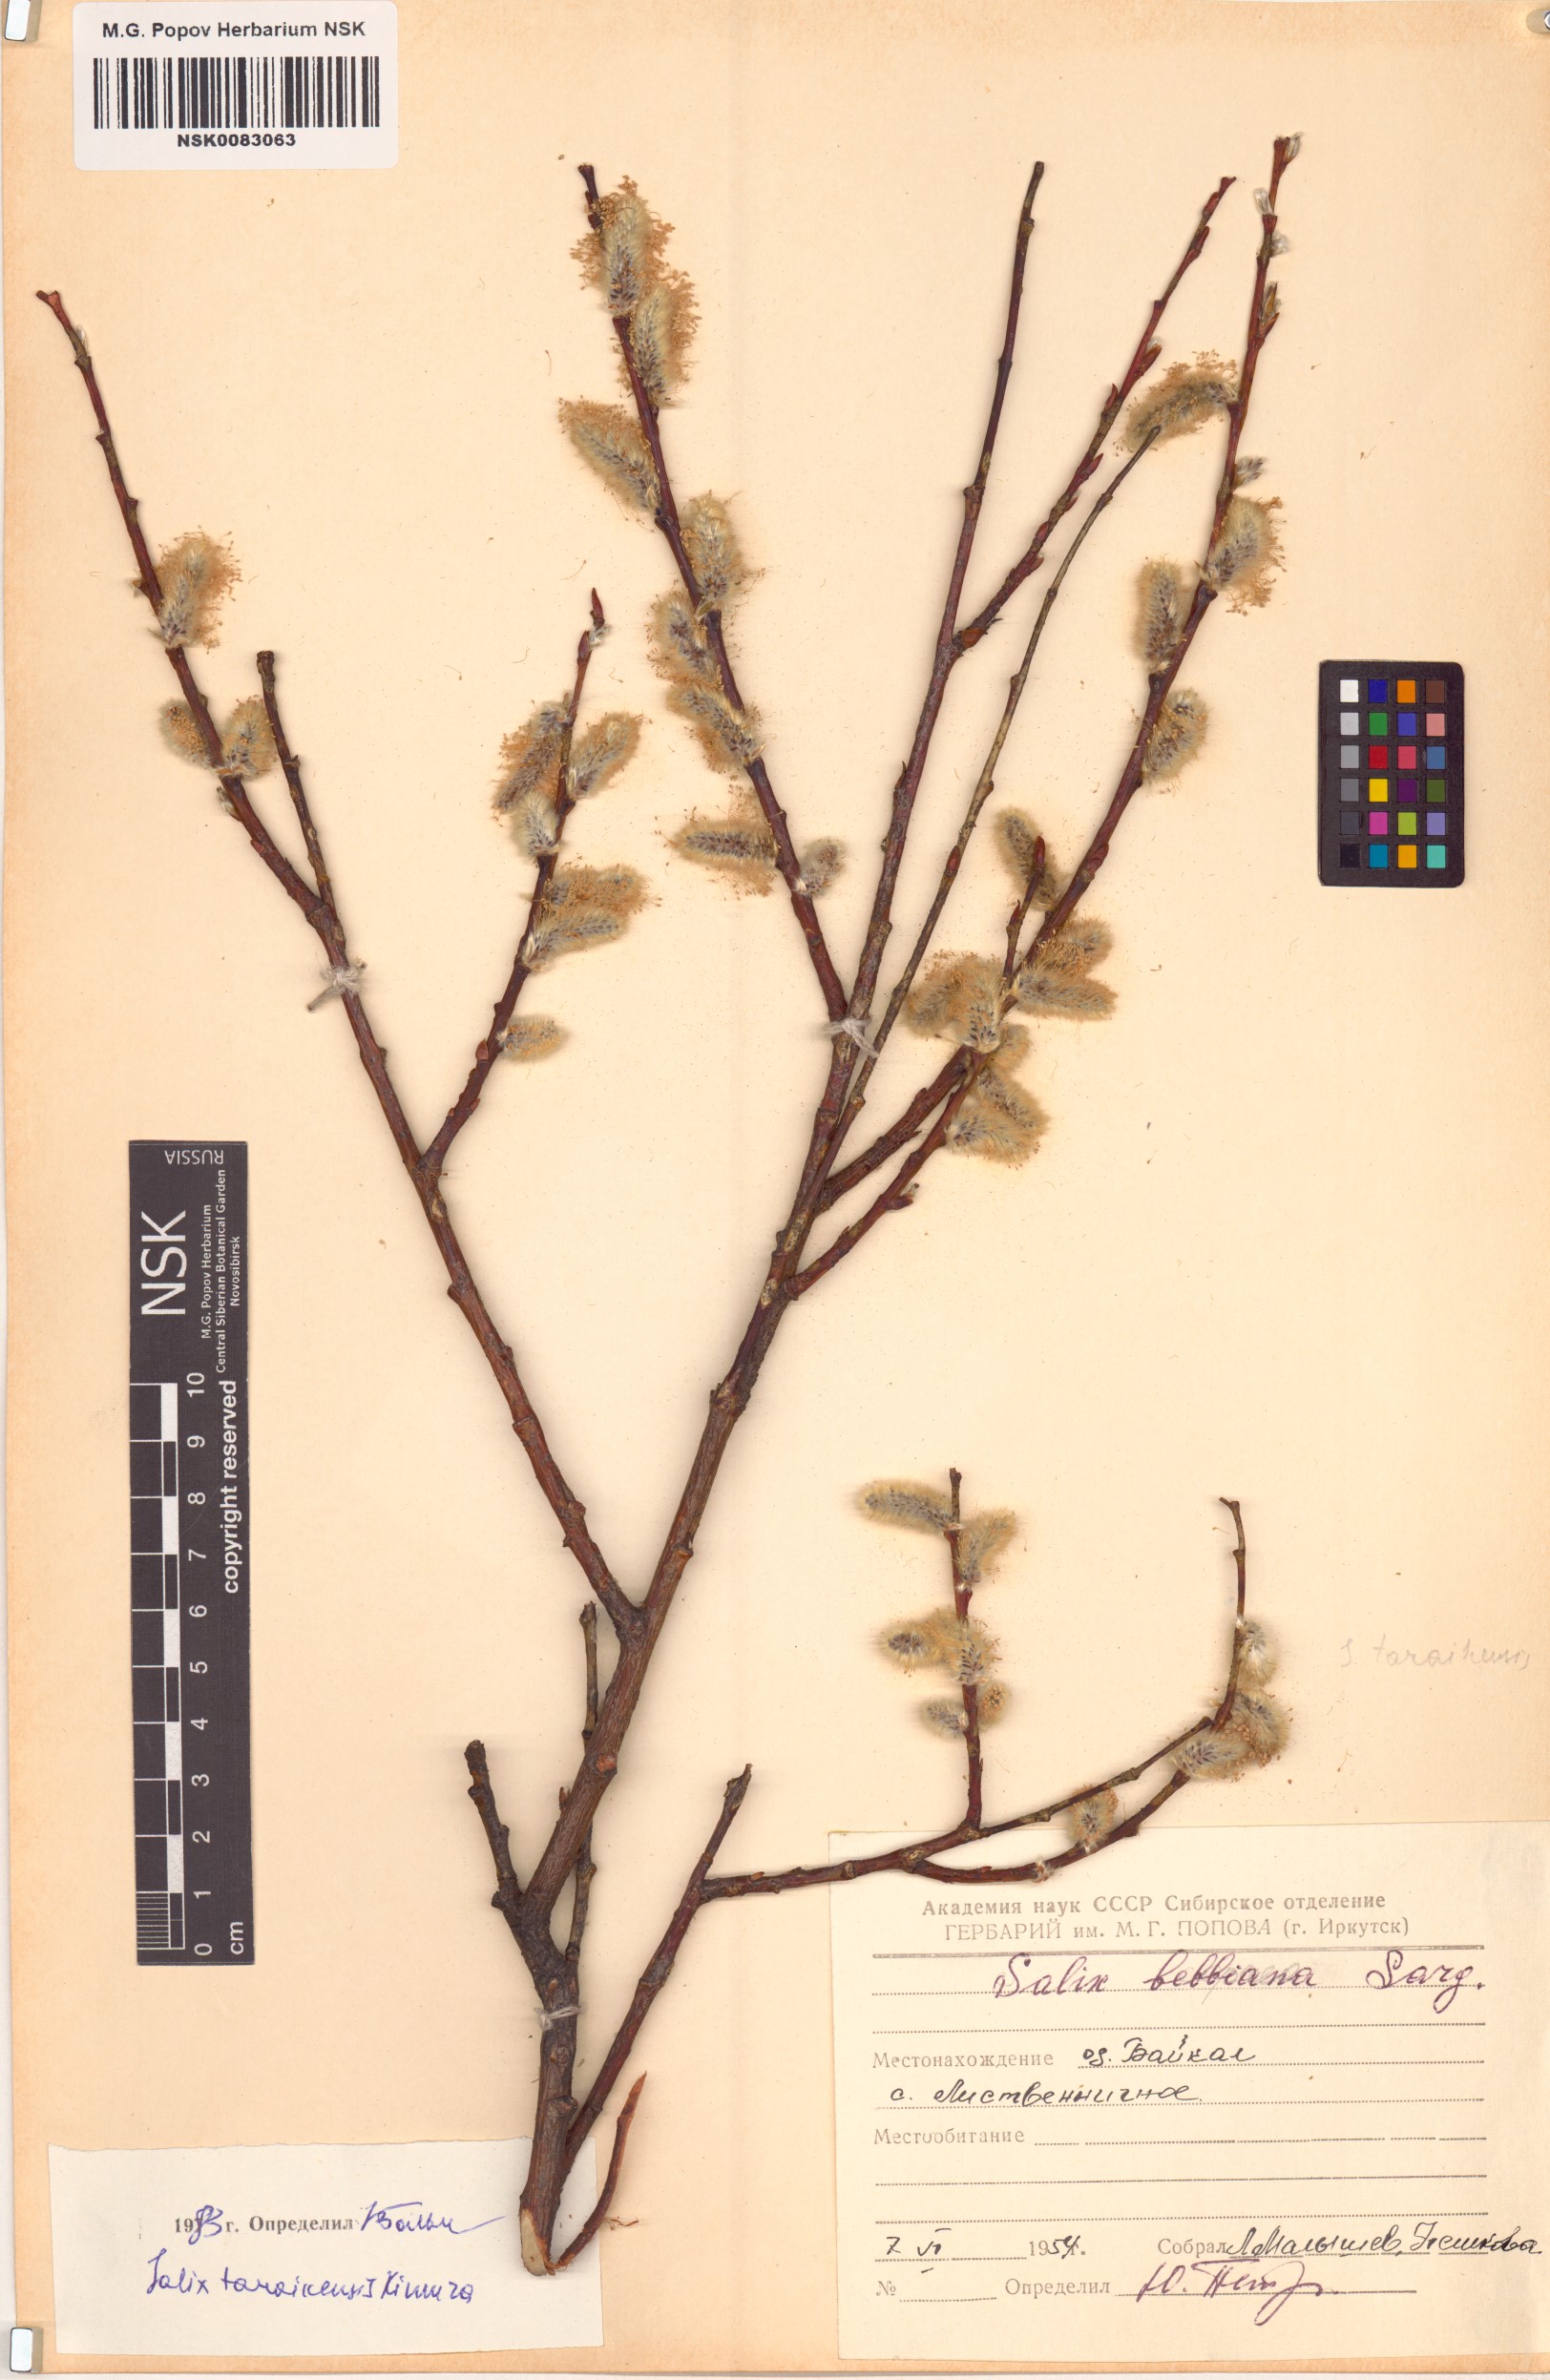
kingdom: Plantae
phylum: Tracheophyta
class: Magnoliopsida
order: Malpighiales
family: Salicaceae
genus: Salix
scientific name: Salix taraikensis
